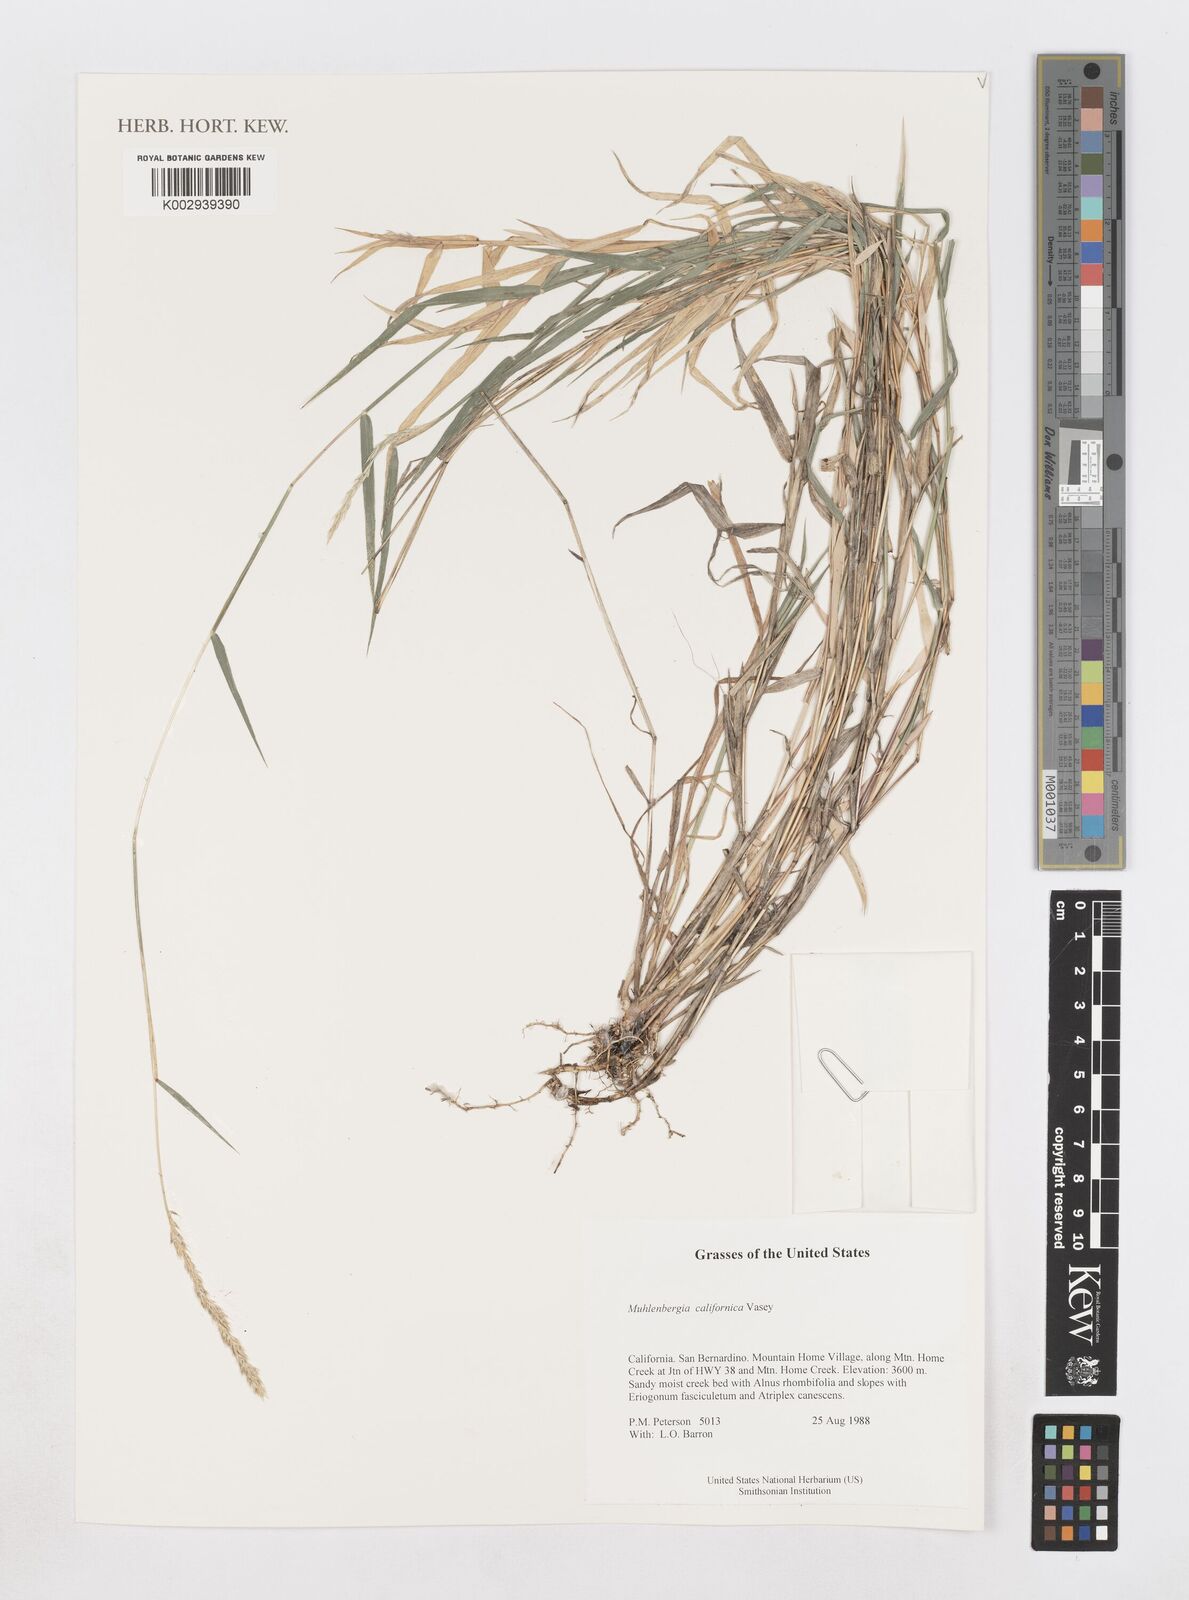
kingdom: Plantae
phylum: Tracheophyta
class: Liliopsida
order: Poales
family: Poaceae
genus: Muhlenbergia
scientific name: Muhlenbergia californica
